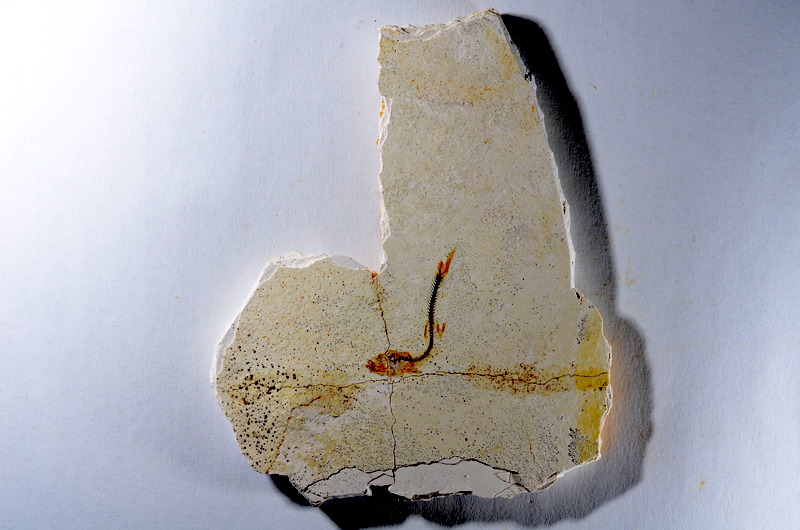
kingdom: Animalia
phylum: Chordata
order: Salmoniformes
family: Orthogonikleithridae
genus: Orthogonikleithrus
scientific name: Orthogonikleithrus hoelli
